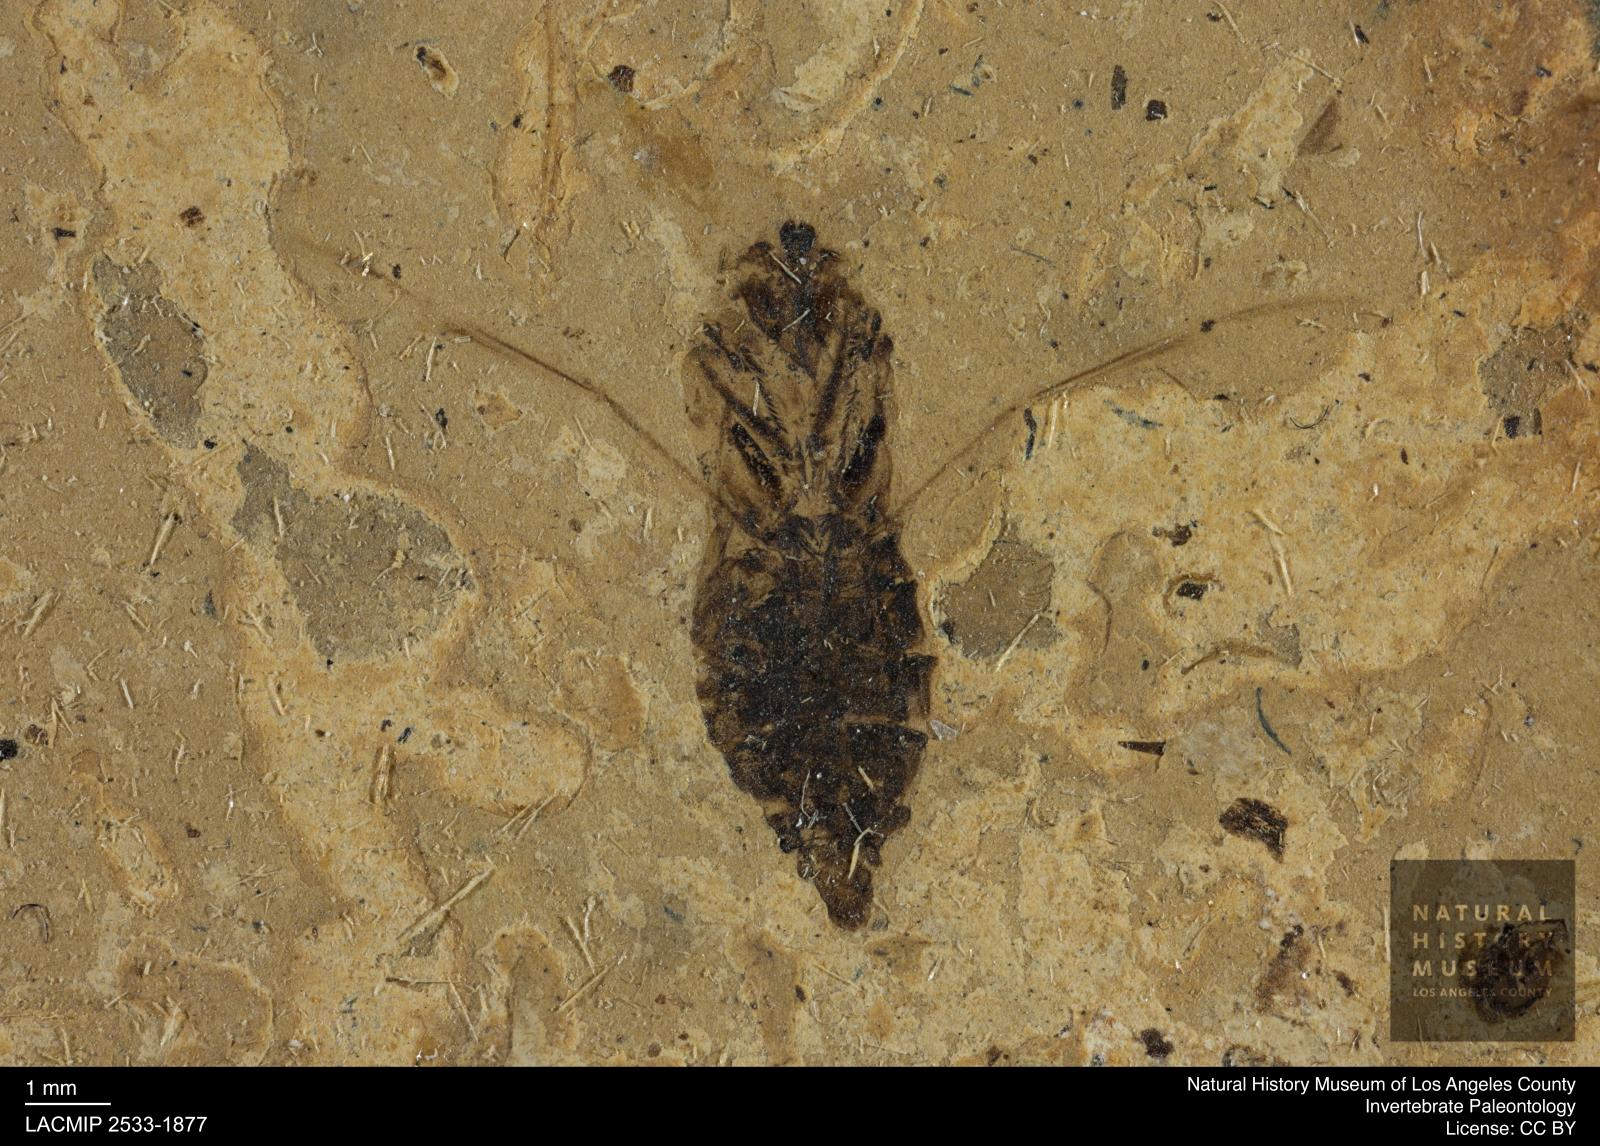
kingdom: Animalia
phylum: Arthropoda
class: Insecta
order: Hemiptera
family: Notonectidae
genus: Anisops
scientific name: Anisops Notonecta deichmuelleri
